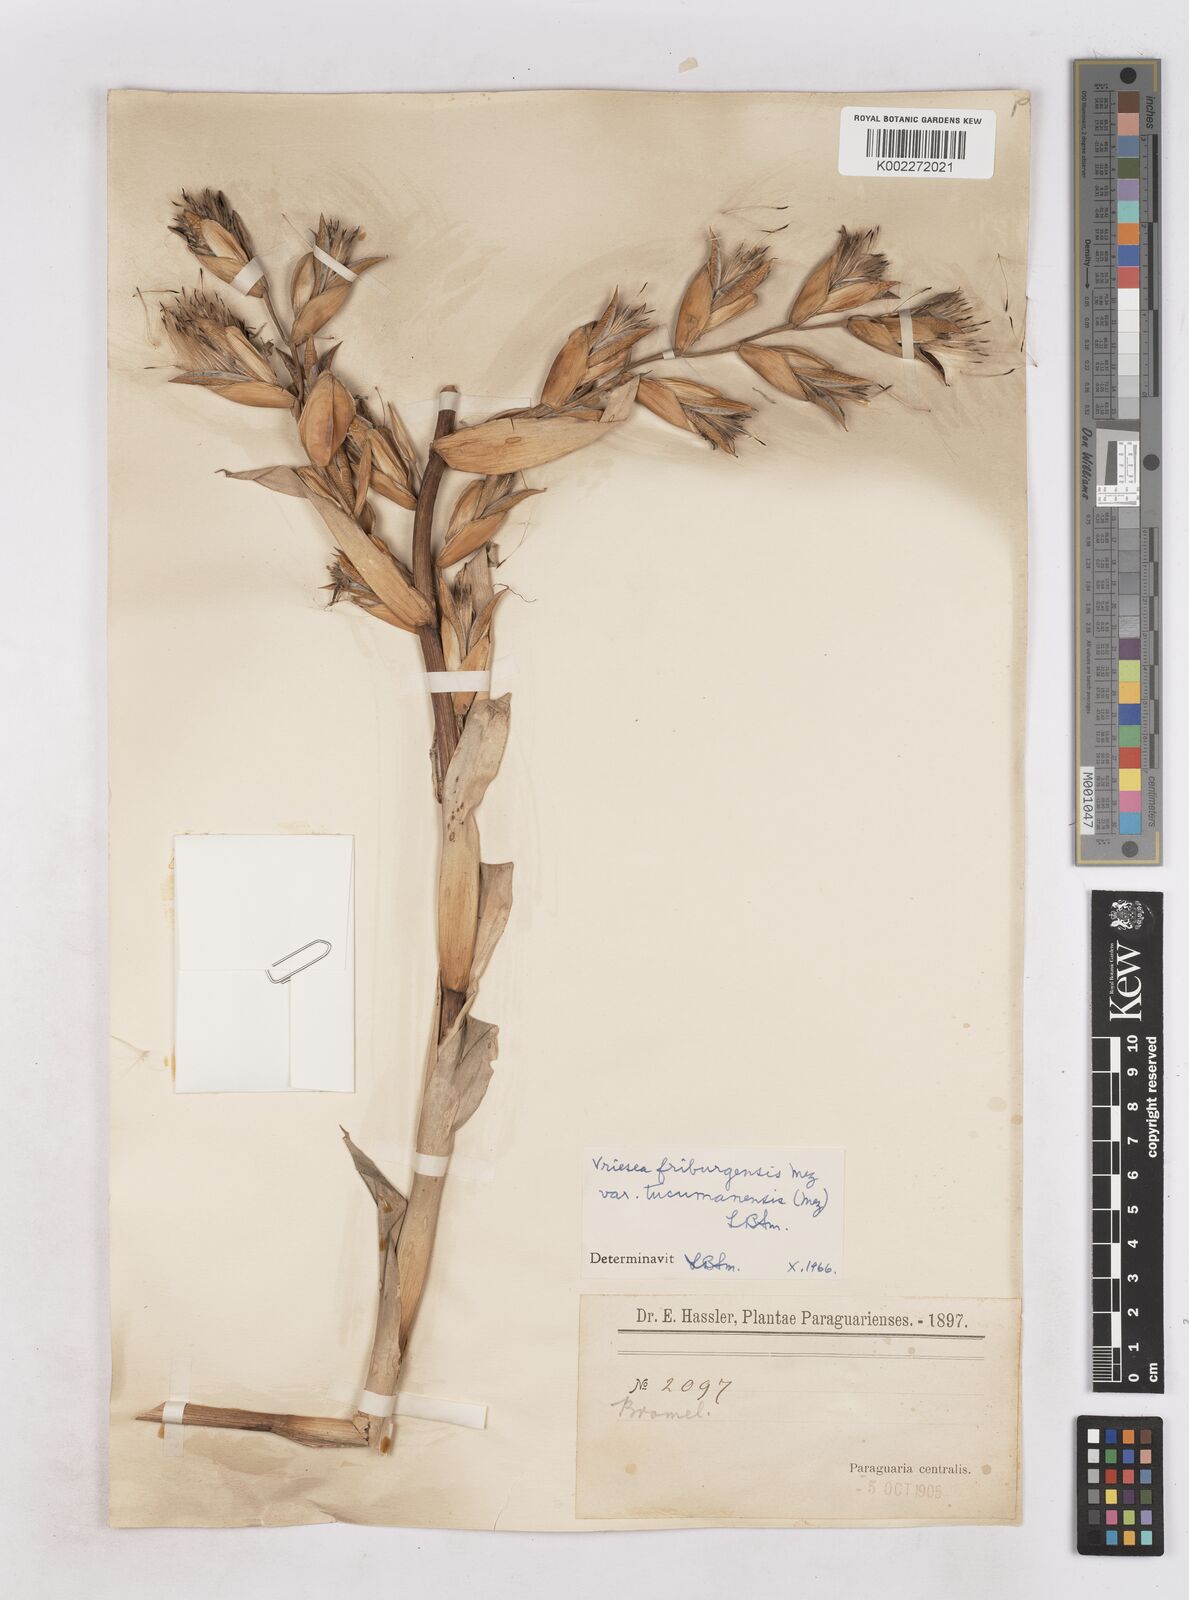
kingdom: Plantae
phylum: Tracheophyta
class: Liliopsida
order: Poales
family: Bromeliaceae
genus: Vriesea
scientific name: Vriesea friburgensis
